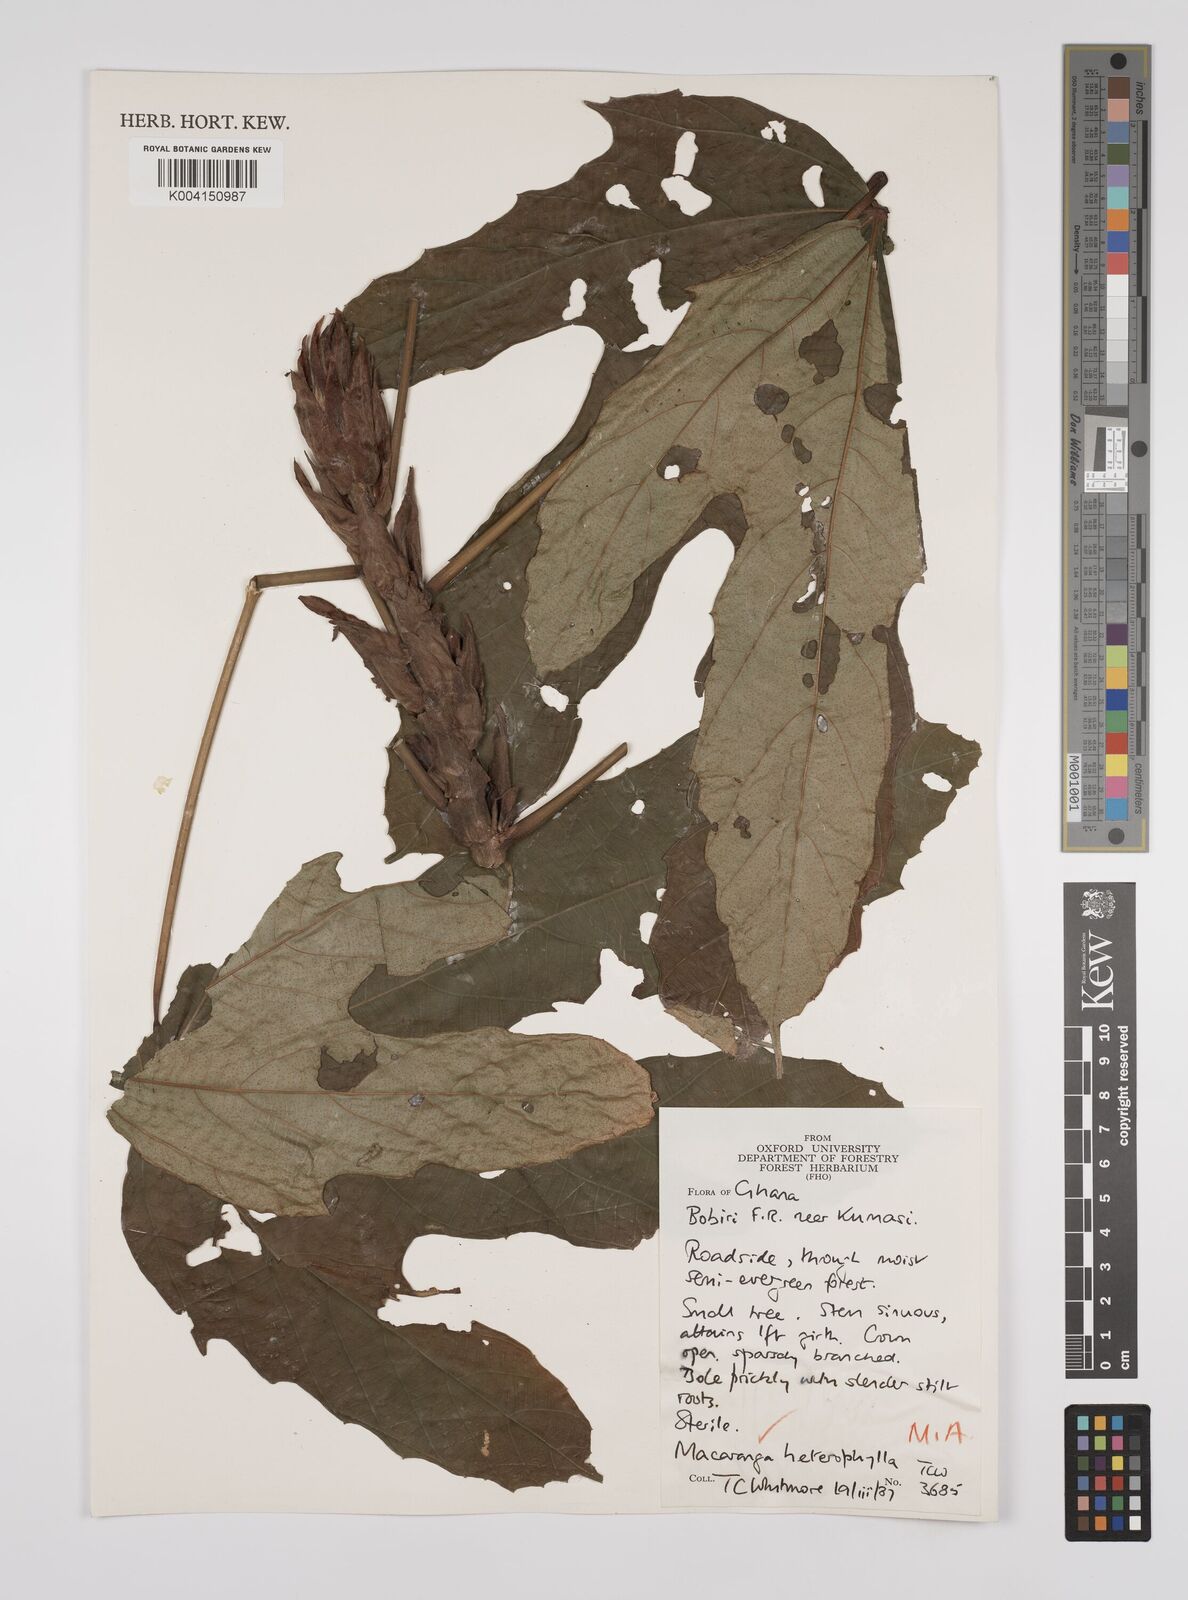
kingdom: Plantae
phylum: Tracheophyta
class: Magnoliopsida
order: Malpighiales
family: Euphorbiaceae
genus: Macaranga
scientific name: Macaranga heterophylla
